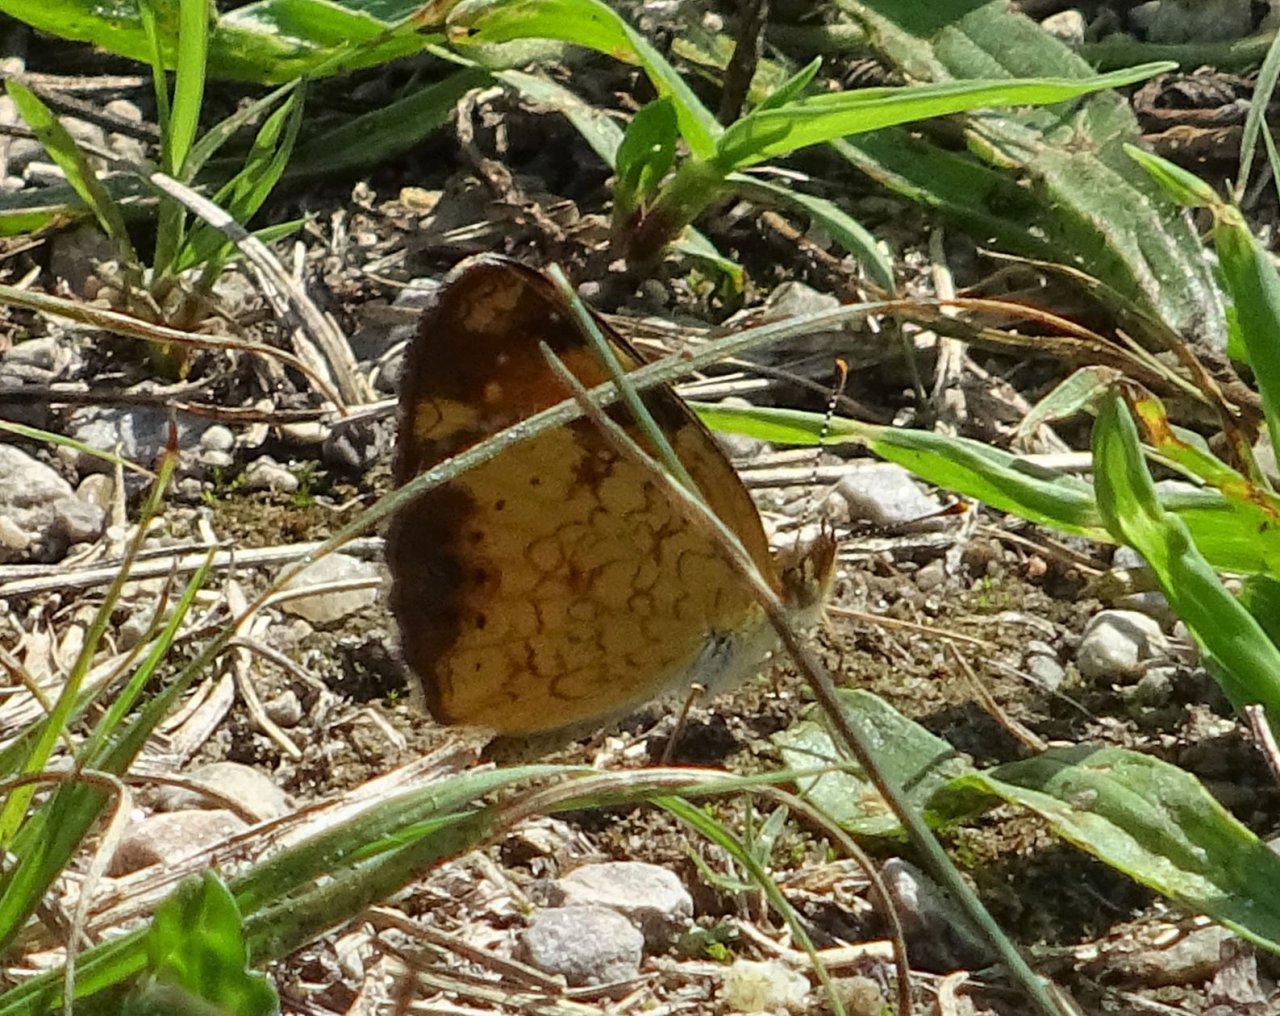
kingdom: Animalia
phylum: Arthropoda
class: Insecta
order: Lepidoptera
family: Nymphalidae
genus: Phyciodes
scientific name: Phyciodes tharos
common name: Northern Crescent
